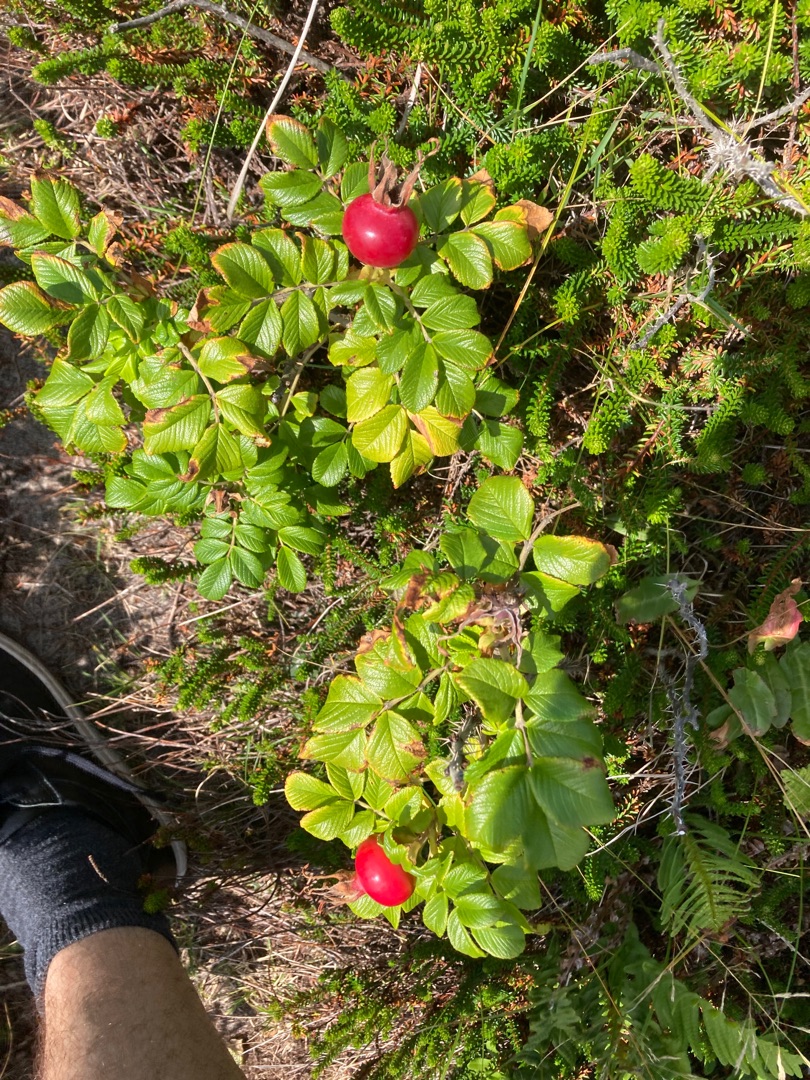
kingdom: Plantae
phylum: Tracheophyta
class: Magnoliopsida
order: Rosales
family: Rosaceae
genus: Rosa
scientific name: Rosa rugosa
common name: Rynket rose
